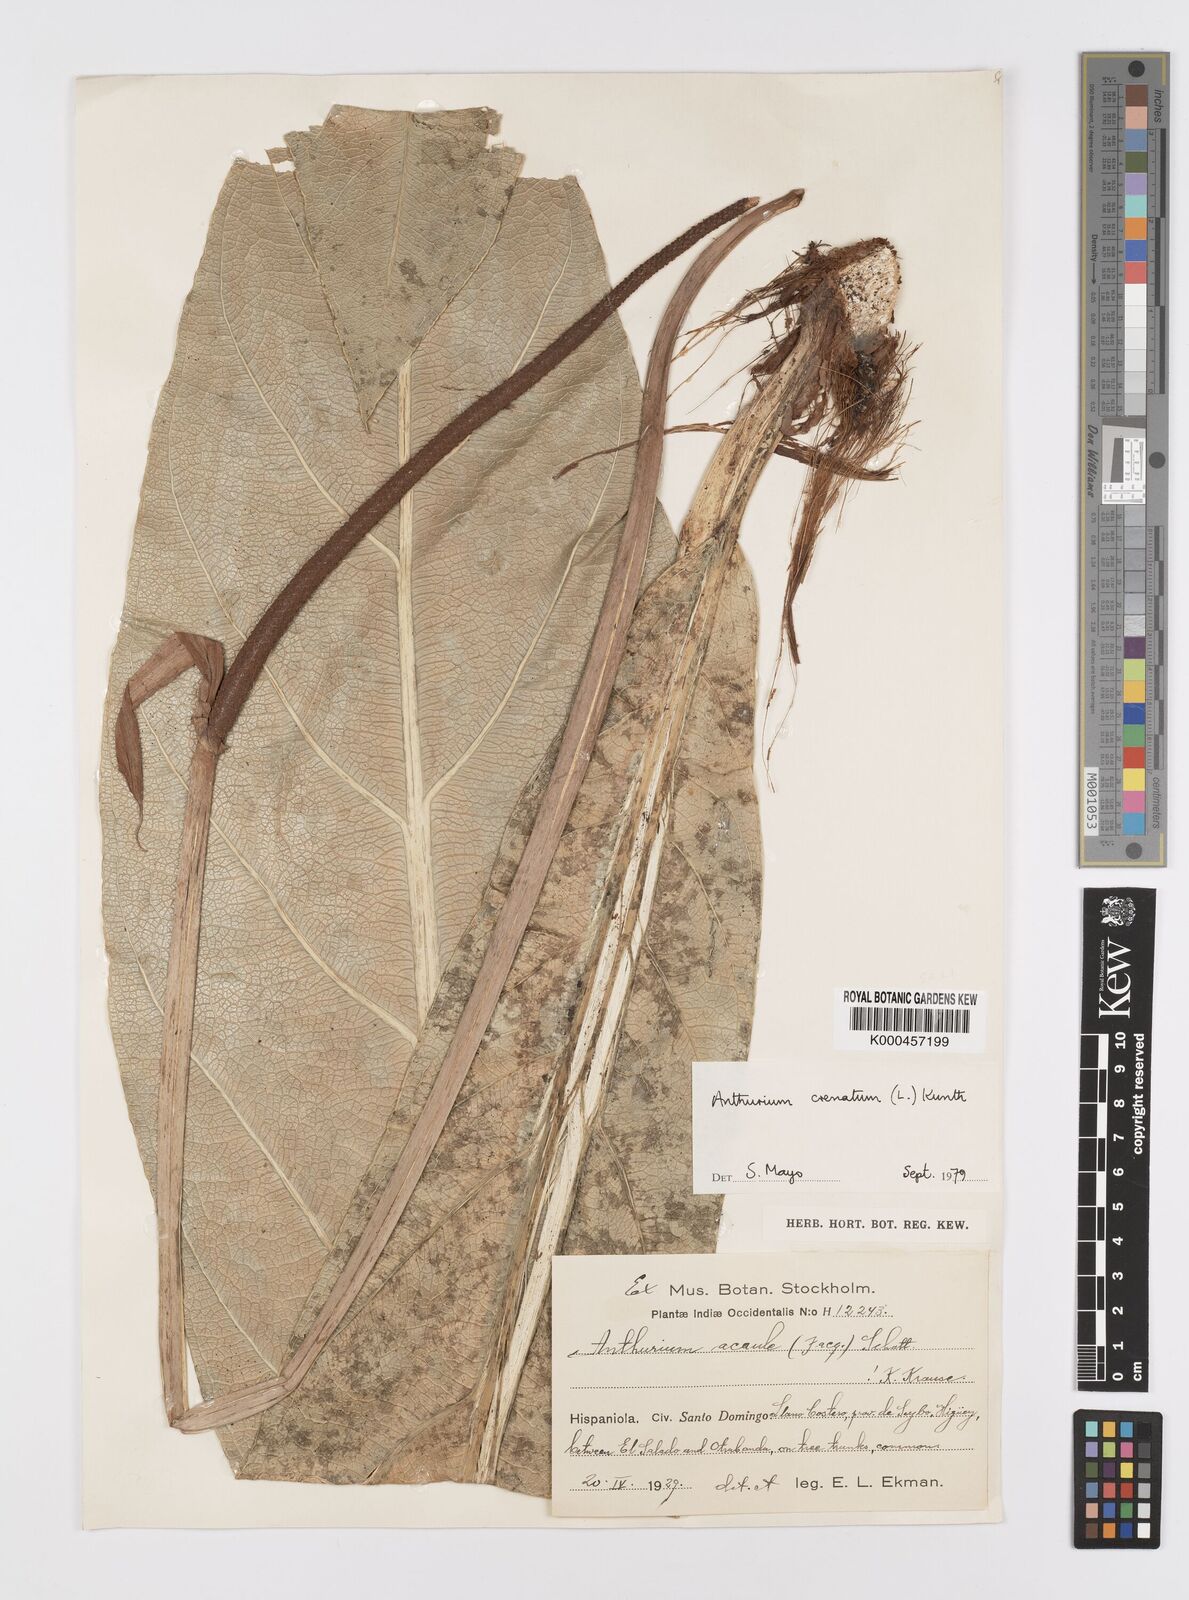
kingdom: Plantae
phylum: Tracheophyta
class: Liliopsida
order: Alismatales
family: Araceae
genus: Anthurium
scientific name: Anthurium crenatum
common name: Scalloped laceleaf
